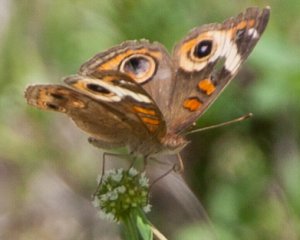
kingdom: Animalia
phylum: Arthropoda
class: Insecta
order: Lepidoptera
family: Nymphalidae
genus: Junonia
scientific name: Junonia coenia
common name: Common Buckeye
